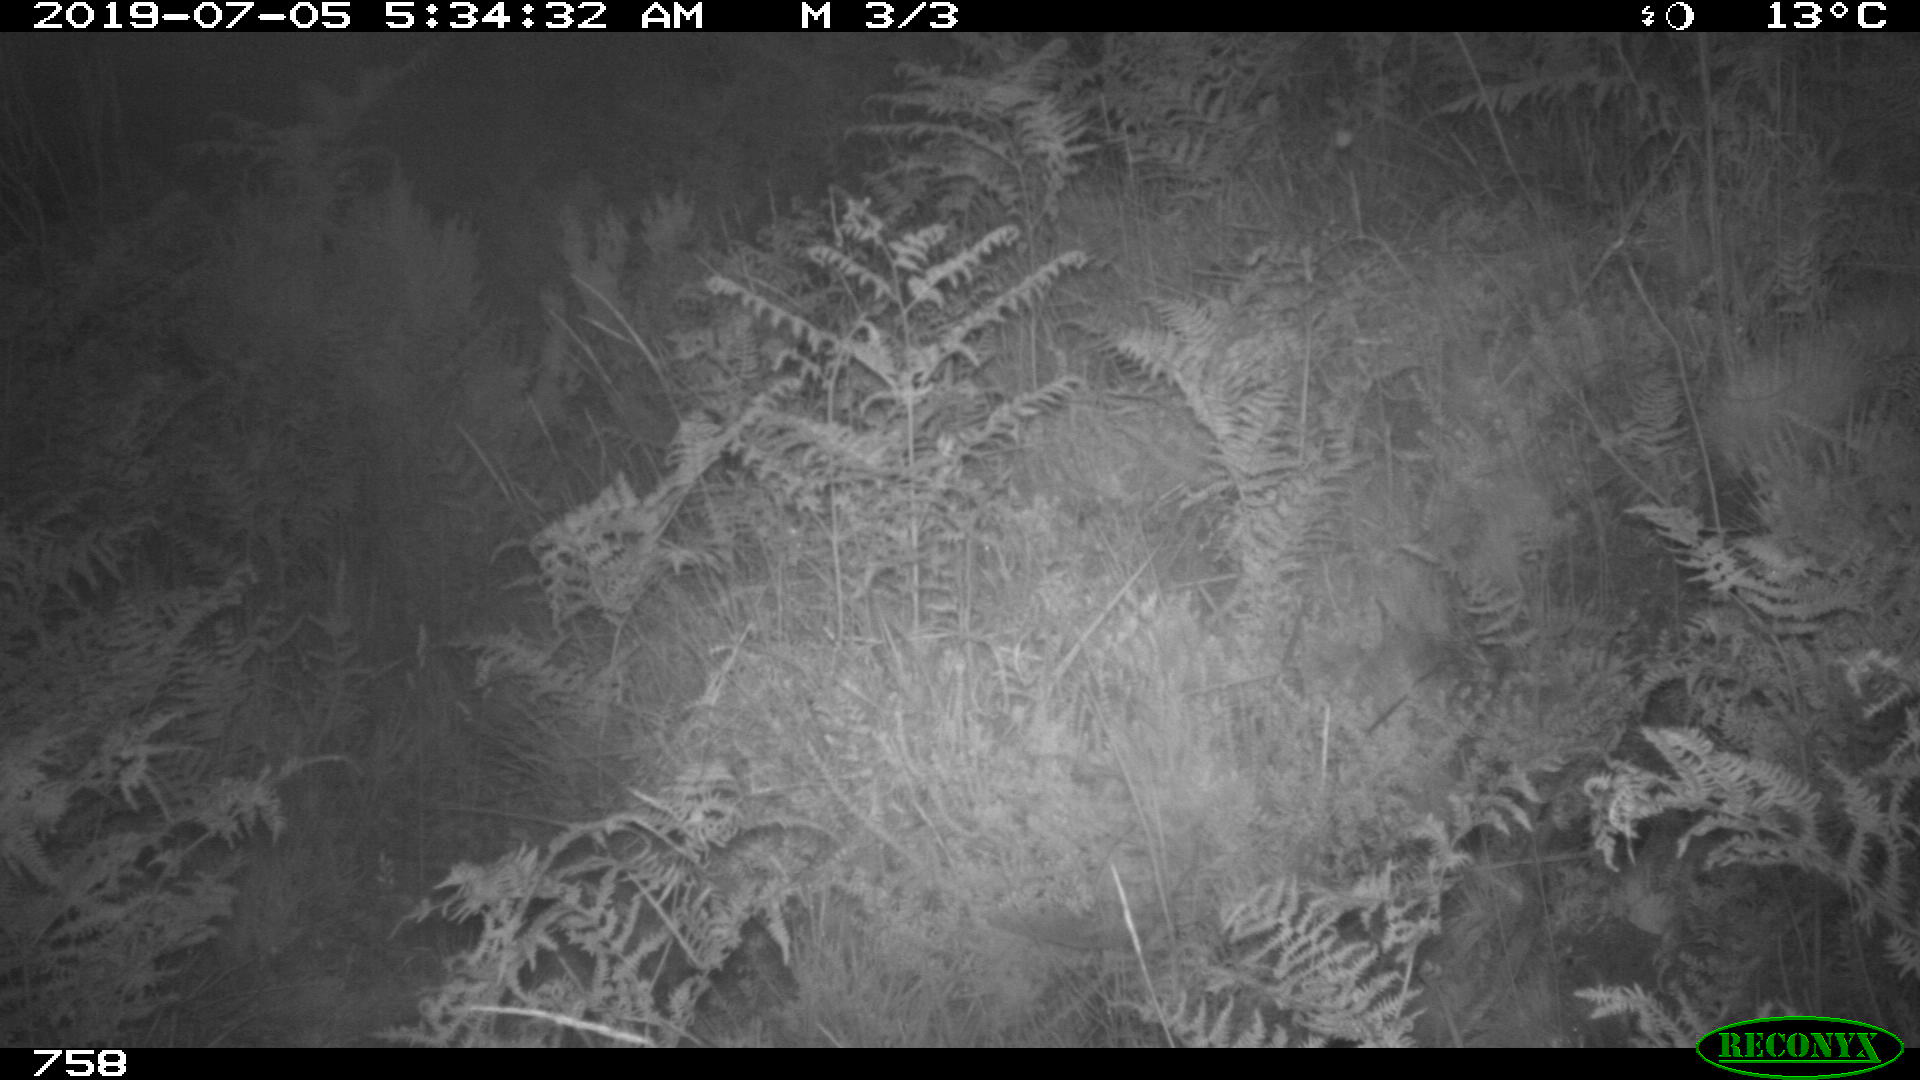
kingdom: Animalia
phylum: Chordata
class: Mammalia
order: Artiodactyla
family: Cervidae
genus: Capreolus
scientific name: Capreolus capreolus
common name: Western roe deer
